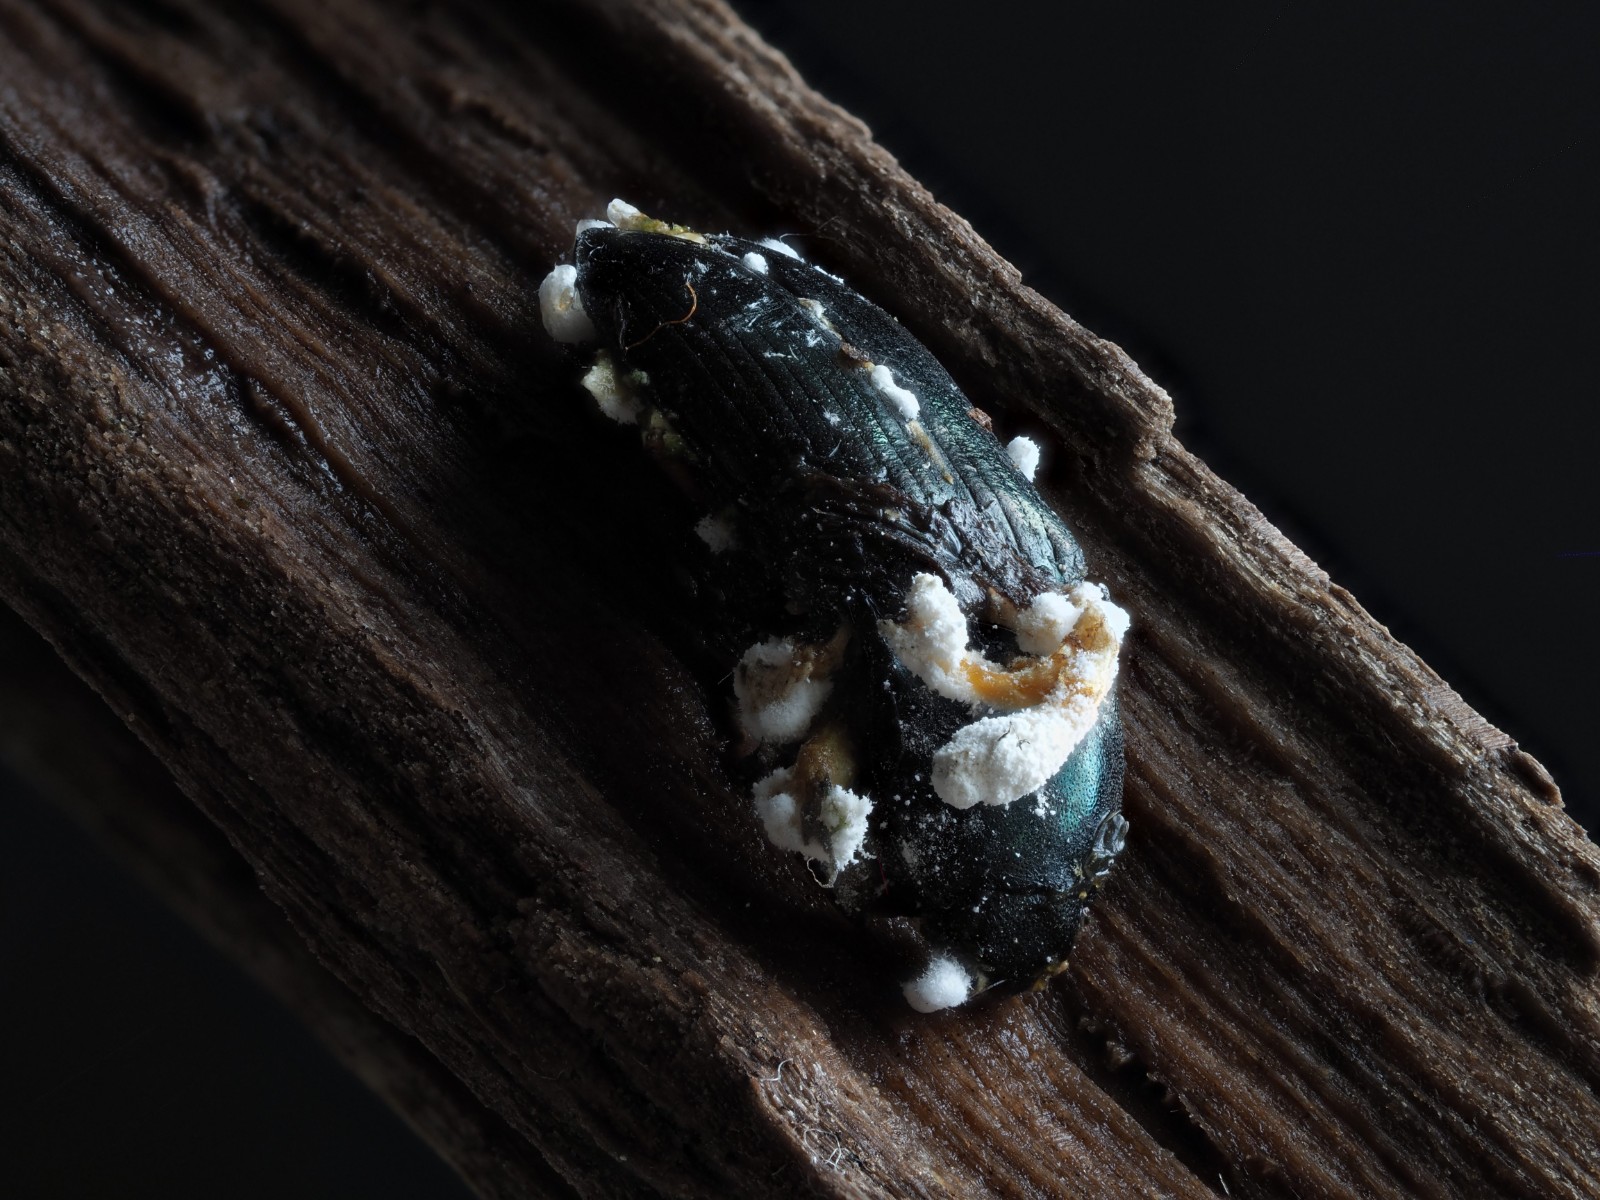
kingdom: Fungi
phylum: Ascomycota
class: Sordariomycetes
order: Hypocreales
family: Cordycipitaceae
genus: Cordyceps
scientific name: Cordyceps
